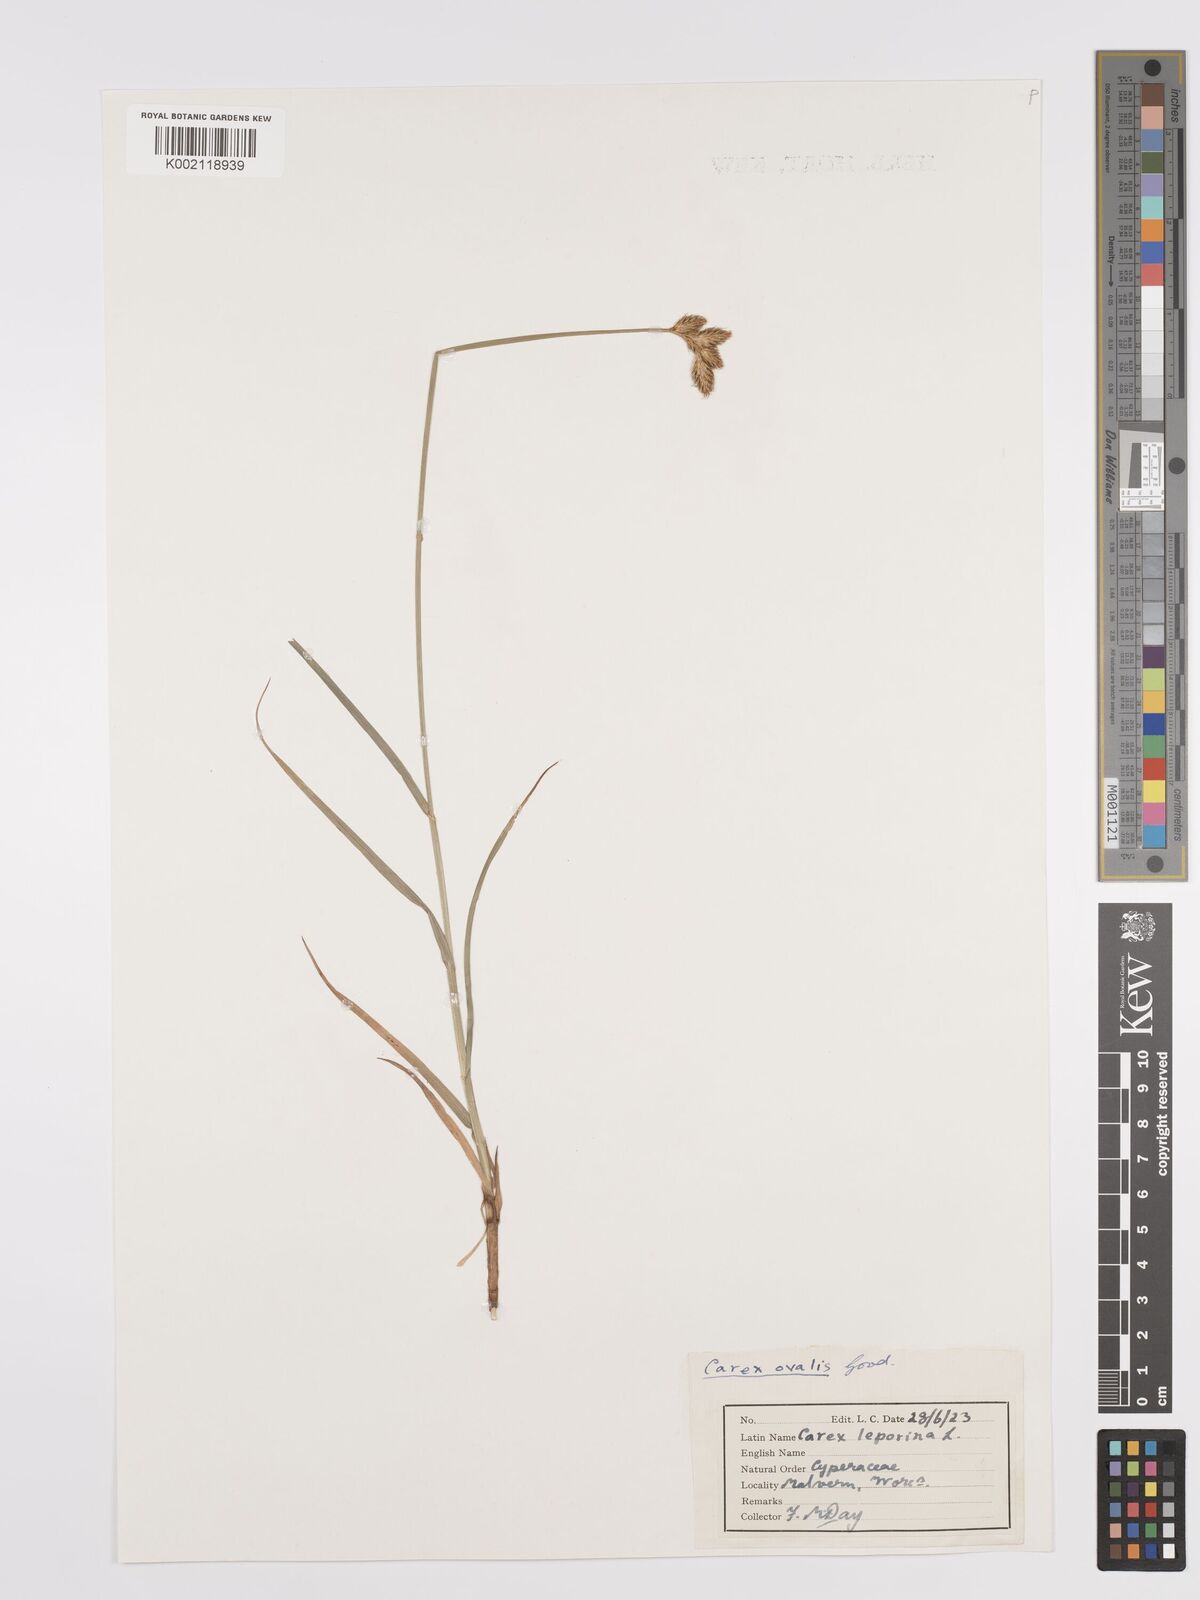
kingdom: Plantae
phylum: Tracheophyta
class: Liliopsida
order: Poales
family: Cyperaceae
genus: Carex
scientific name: Carex leporina
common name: Oval sedge
